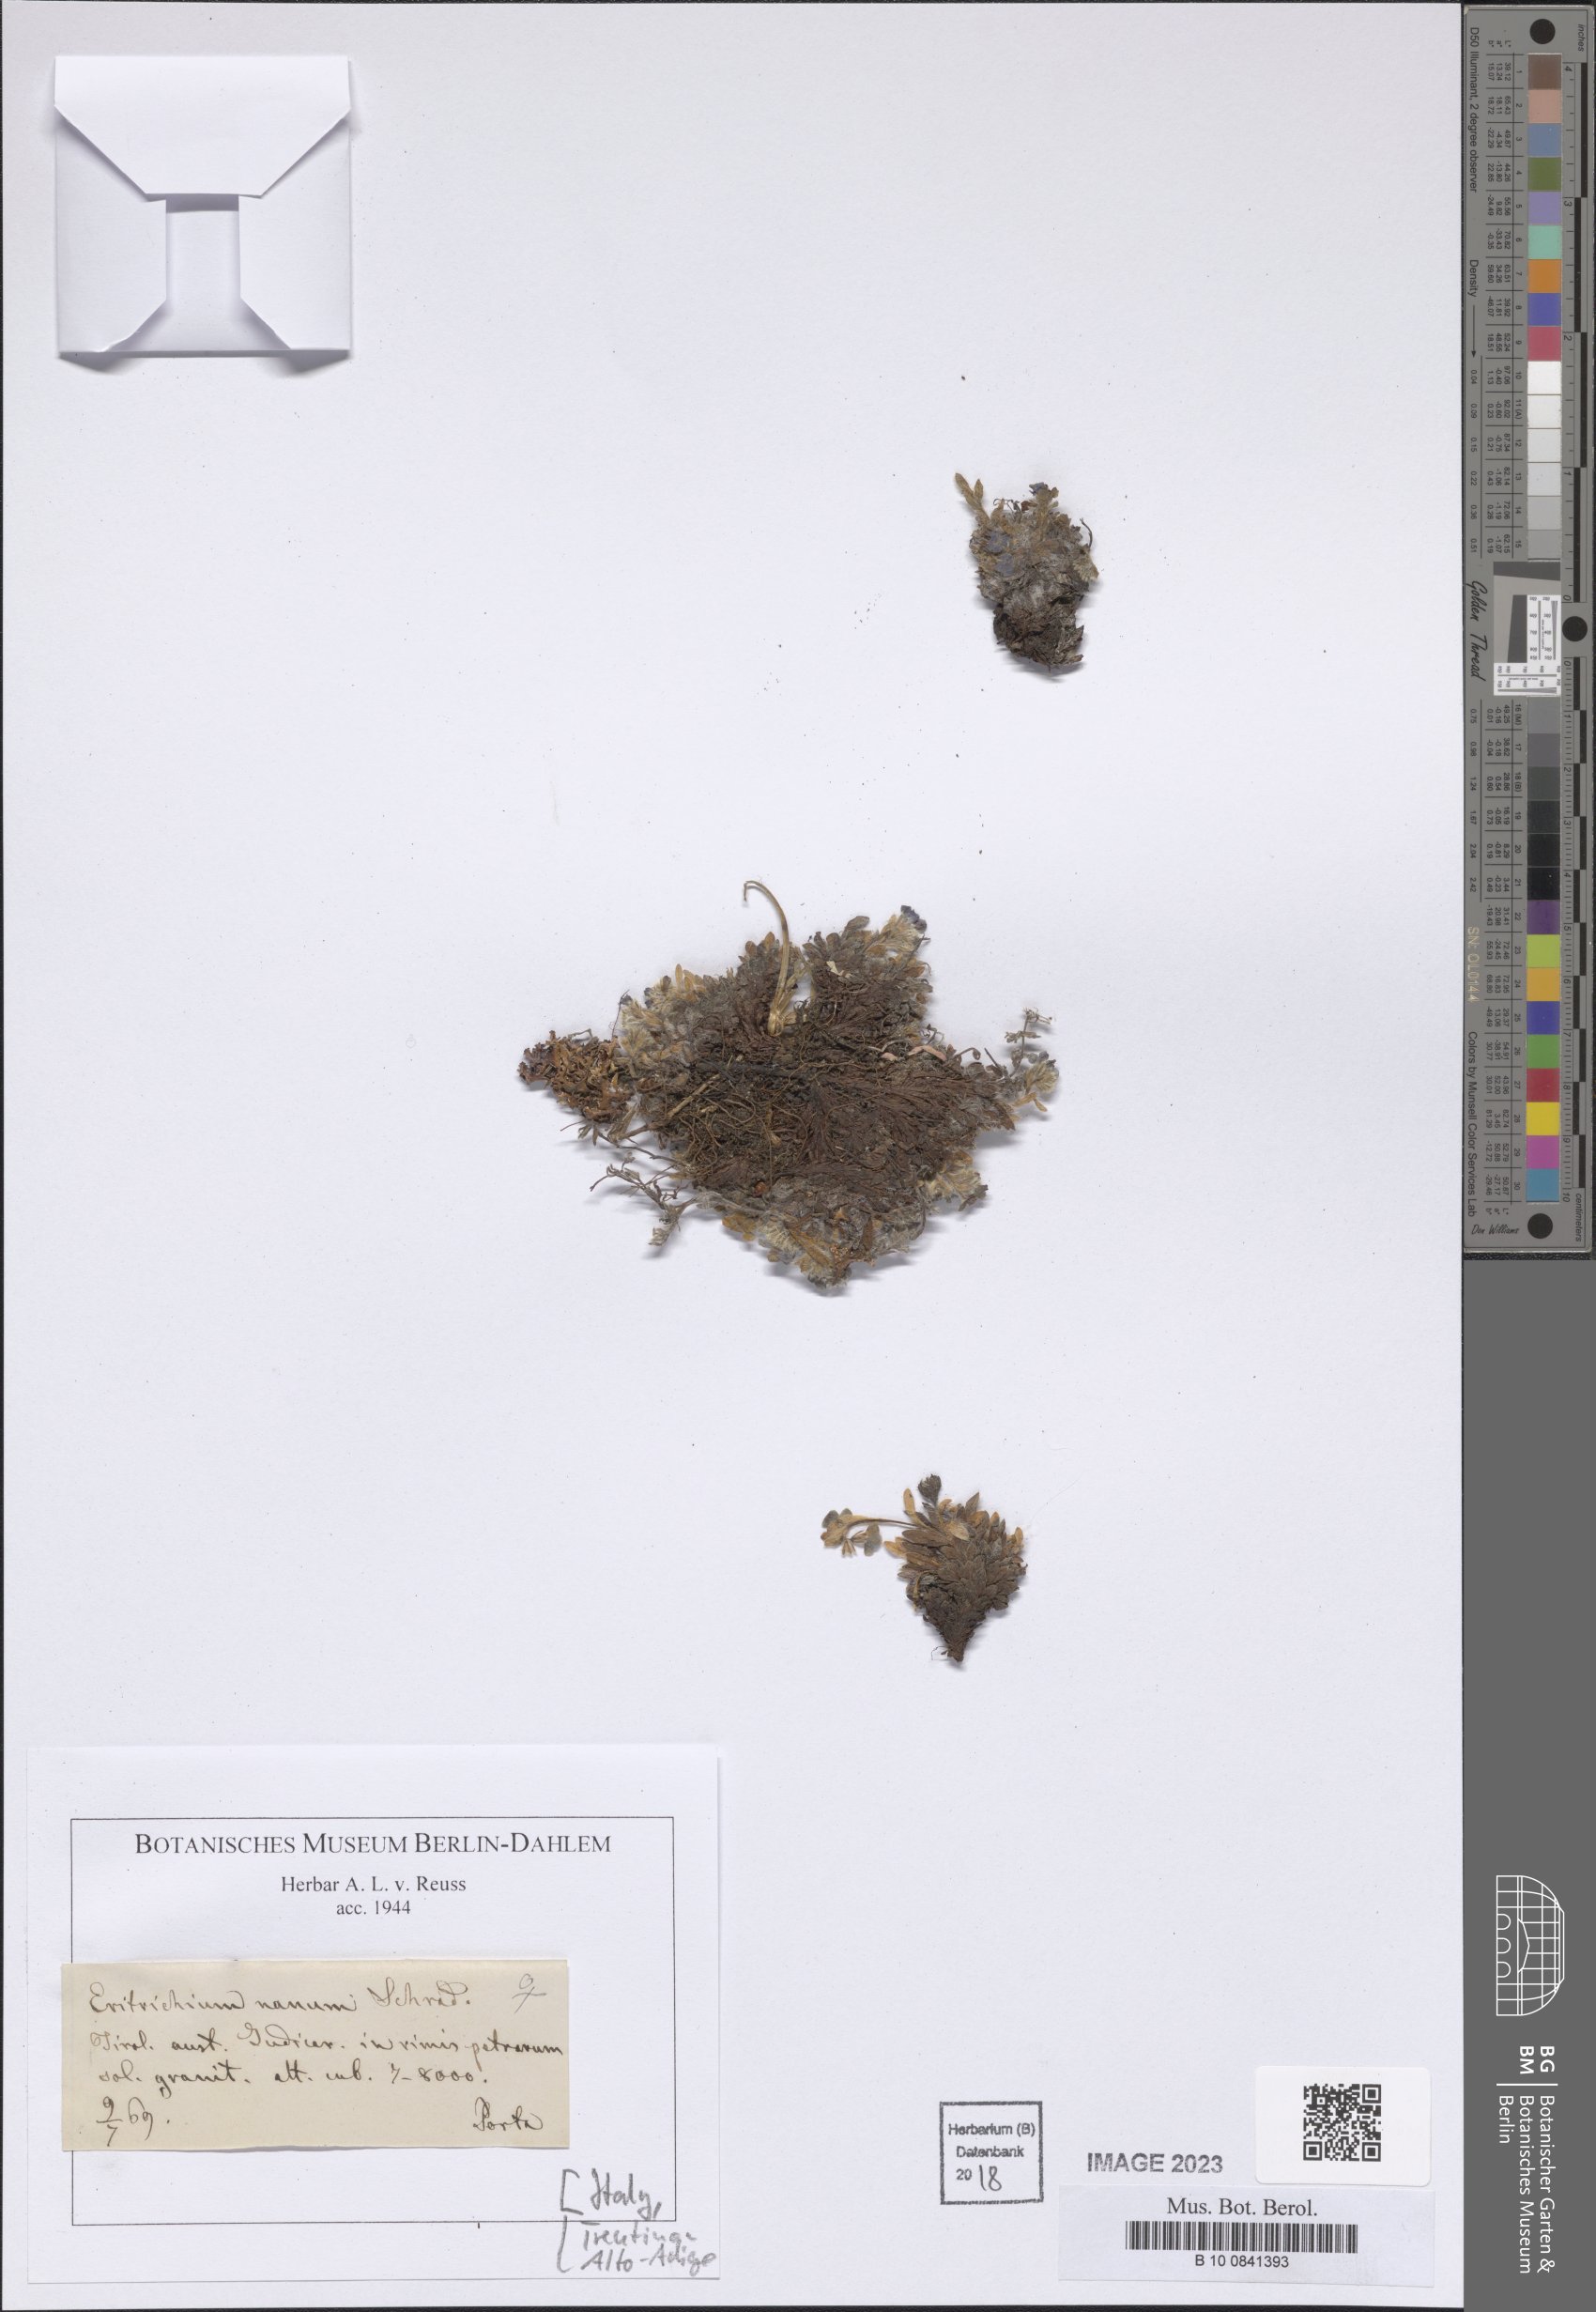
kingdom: Plantae
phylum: Tracheophyta
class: Magnoliopsida
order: Boraginales
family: Boraginaceae
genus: Eritrichium
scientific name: Eritrichium nanum
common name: King-of-the-alps
